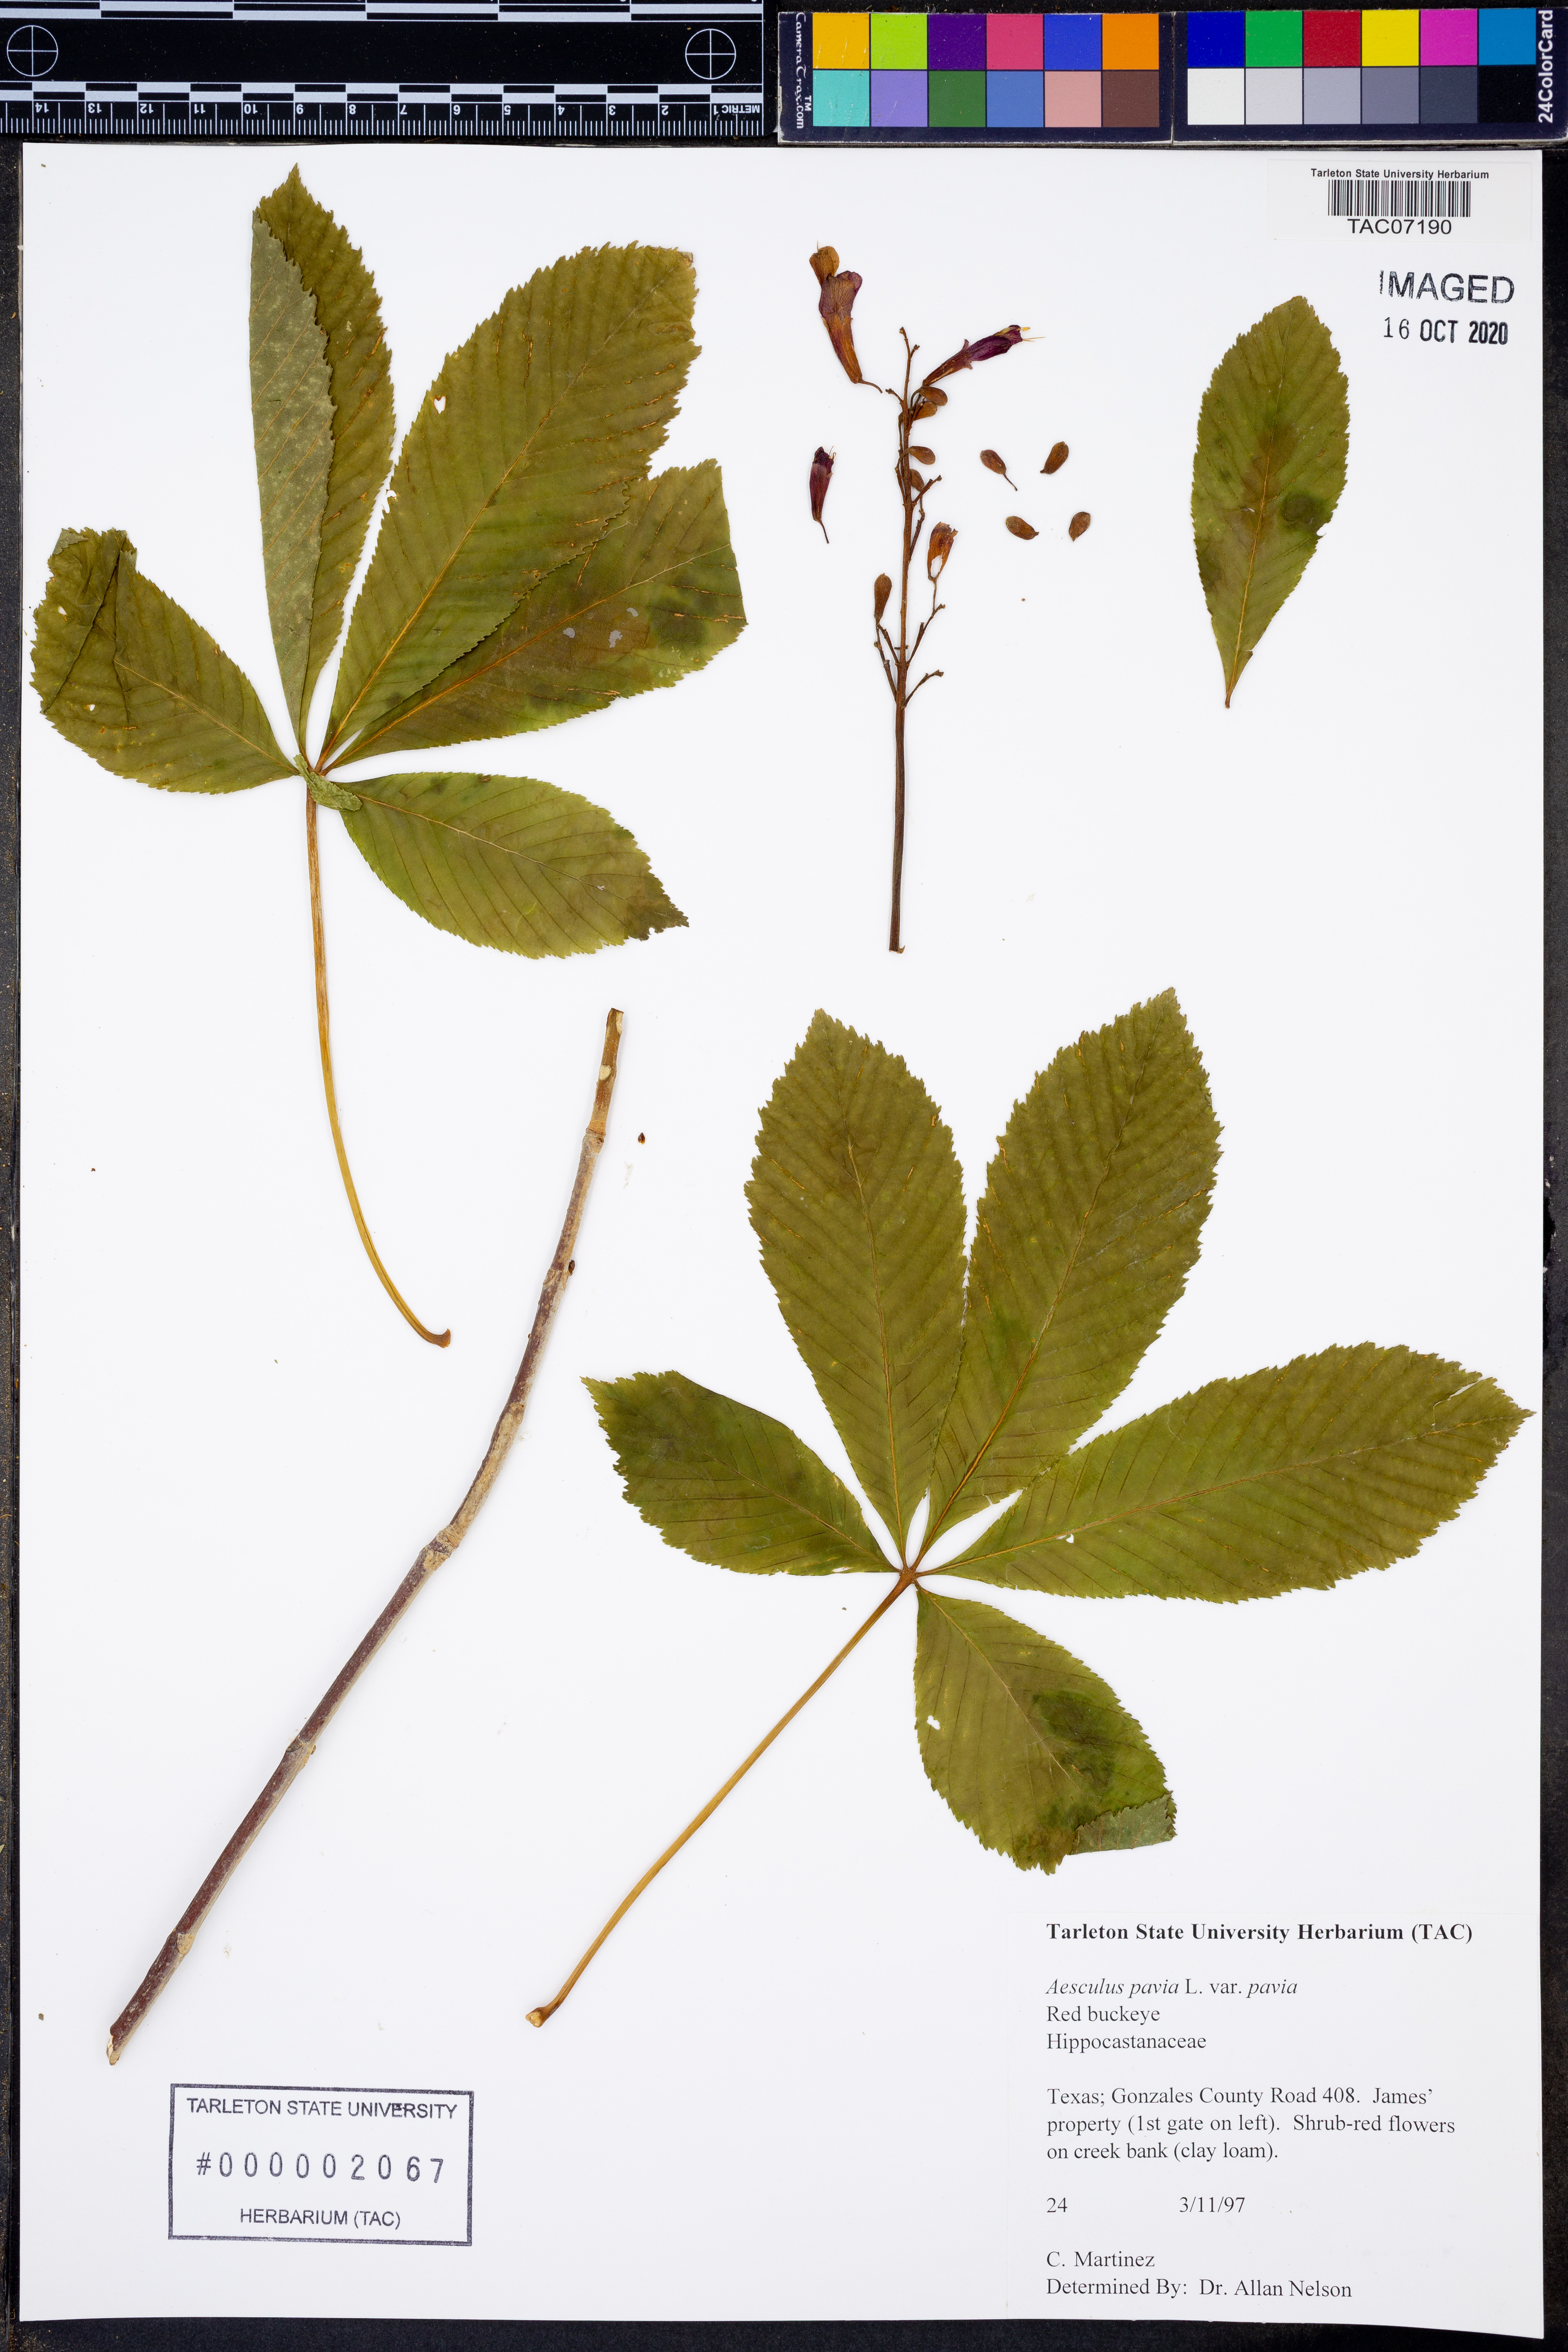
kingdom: Plantae
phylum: Tracheophyta
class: Magnoliopsida
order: Sapindales
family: Sapindaceae
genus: Aesculus
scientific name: Aesculus pavia
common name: Red buckeye
